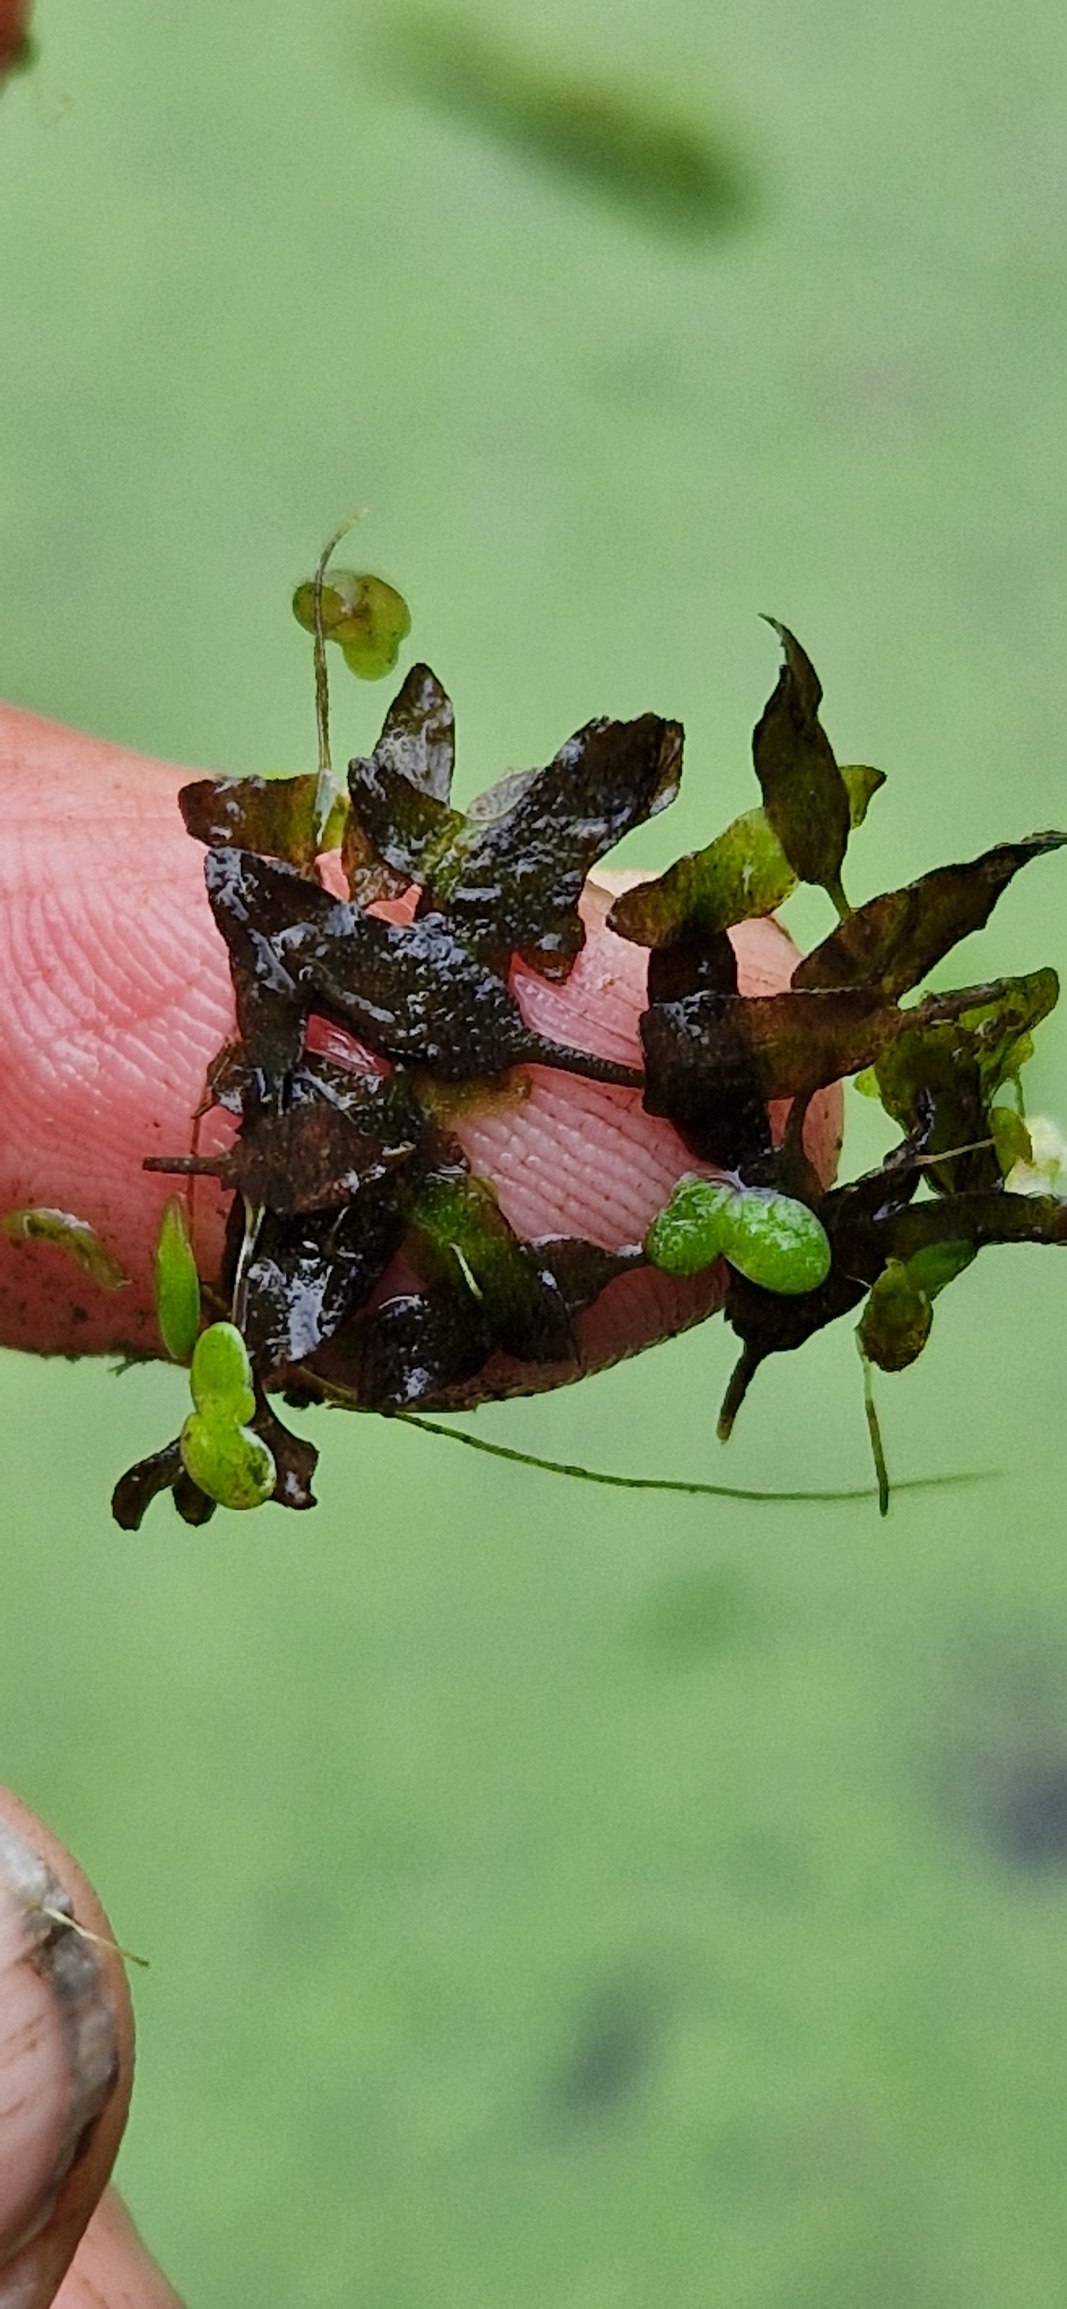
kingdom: Plantae
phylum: Tracheophyta
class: Liliopsida
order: Alismatales
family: Araceae
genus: Lemna
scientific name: Lemna trisulca
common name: Kors-andemad
